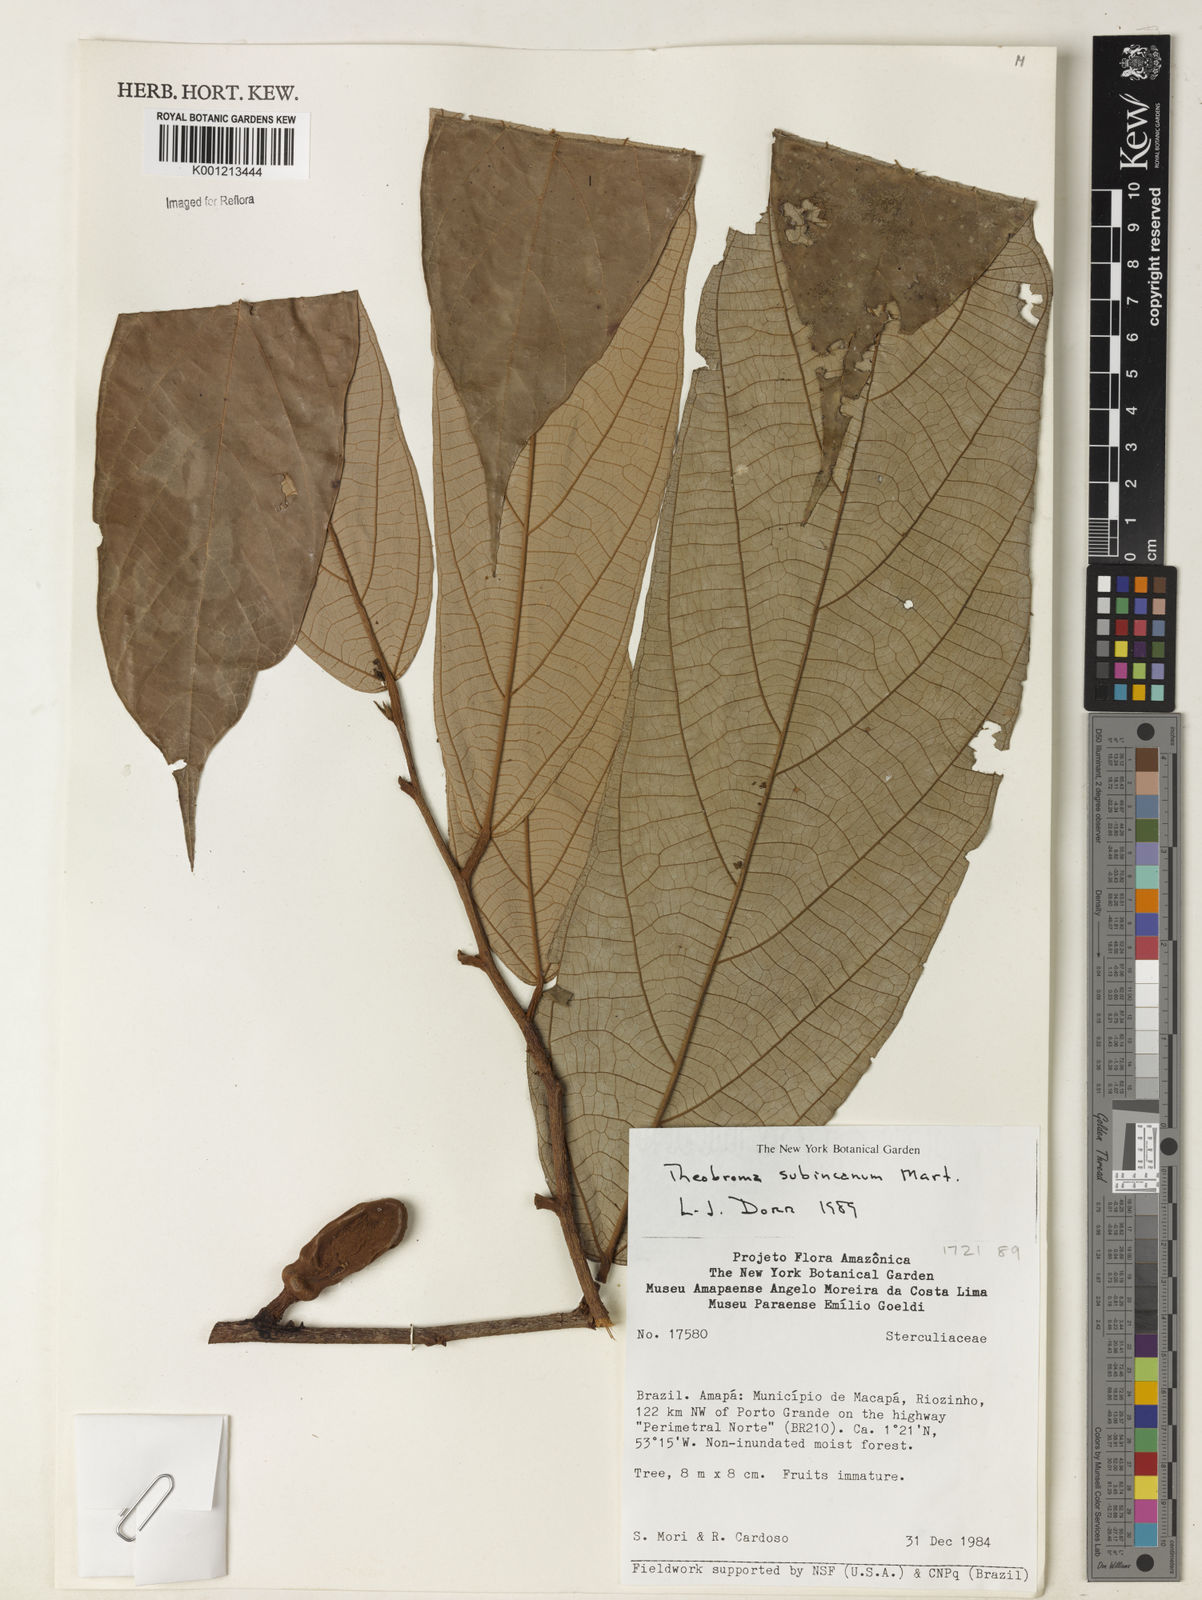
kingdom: Plantae
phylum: Tracheophyta
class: Magnoliopsida
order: Malvales
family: Malvaceae
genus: Theobroma
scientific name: Theobroma subincanum
